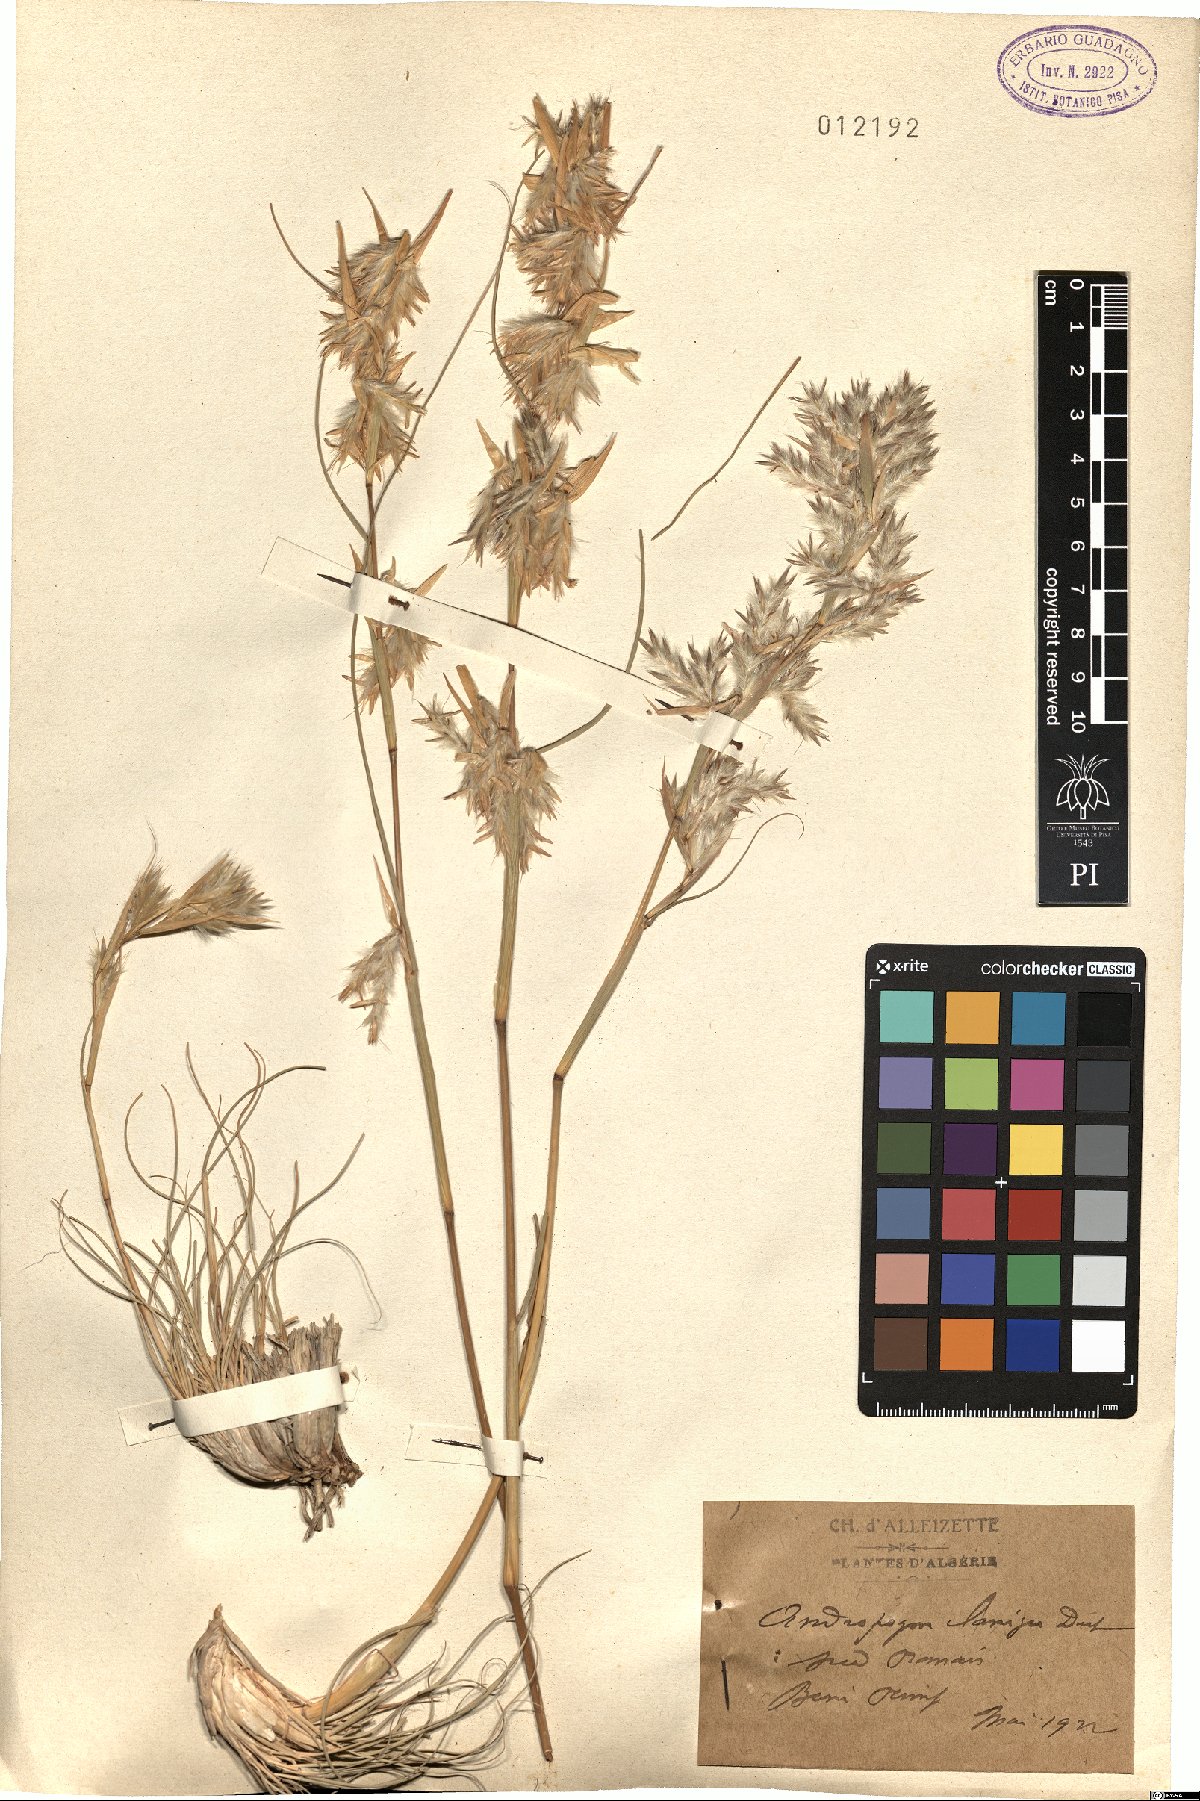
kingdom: Plantae
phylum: Tracheophyta
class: Liliopsida
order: Poales
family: Poaceae
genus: Cymbopogon
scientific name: Cymbopogon iwarancusa
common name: Iwarancusa grass
